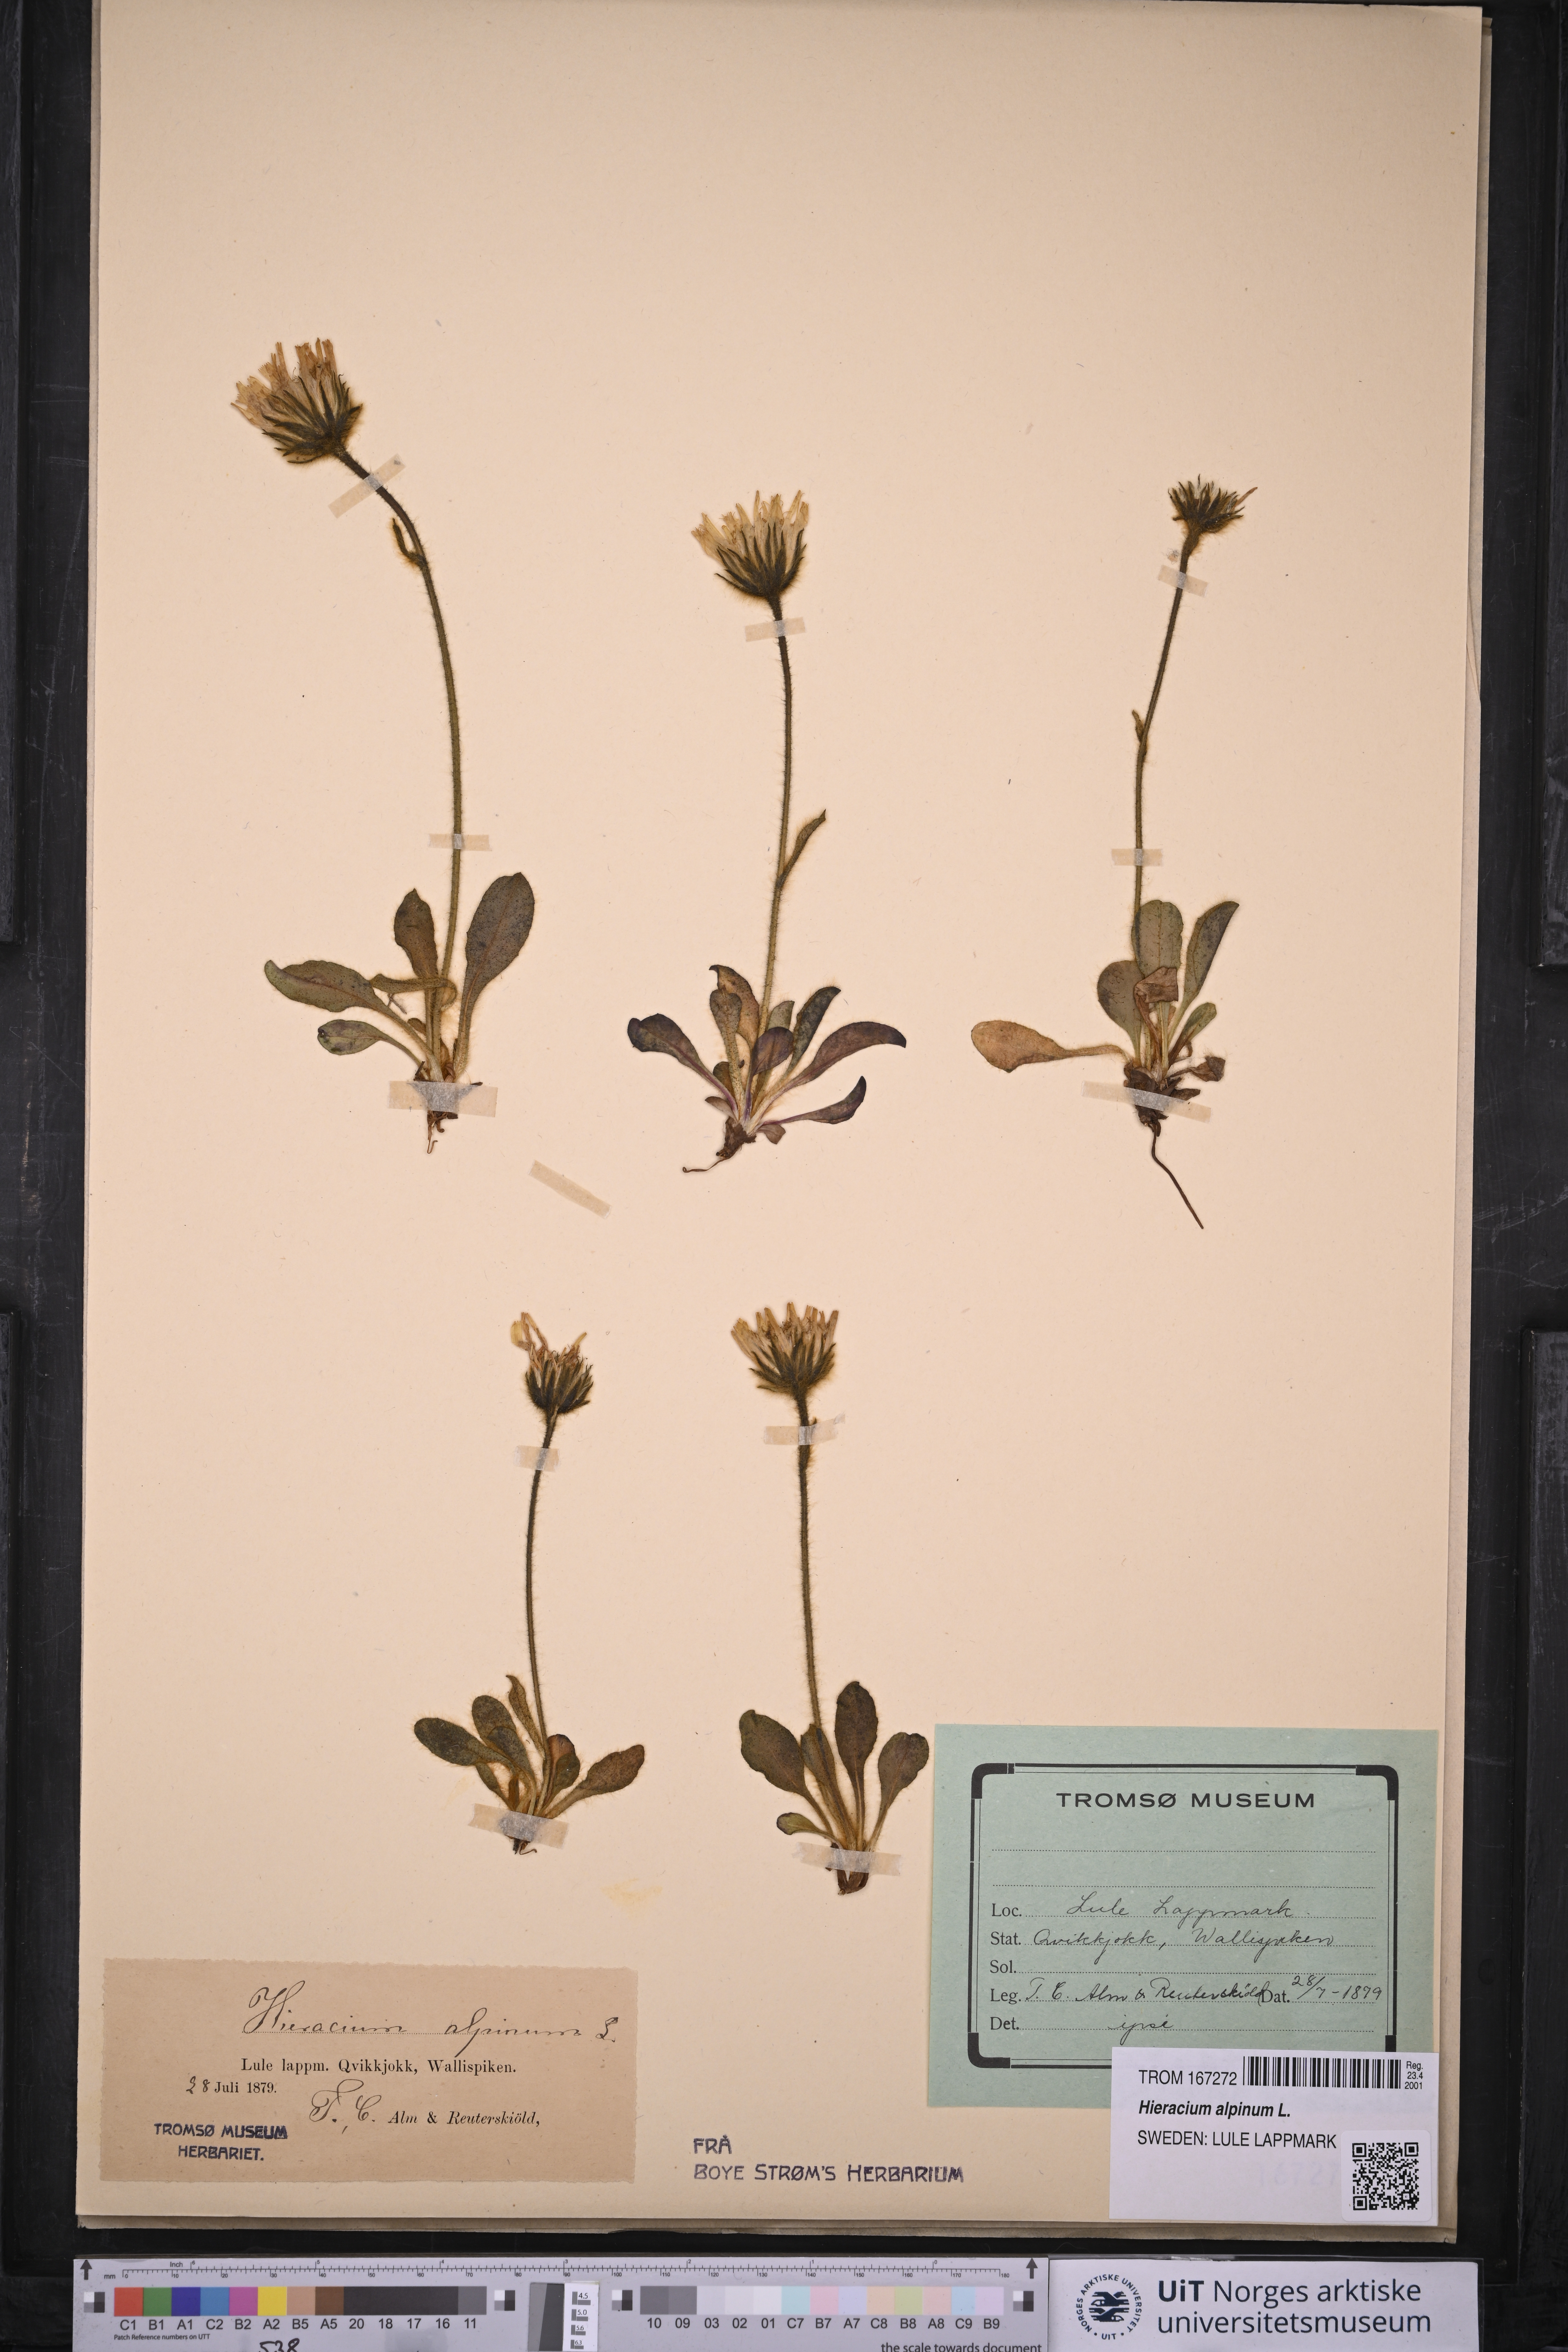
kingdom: Plantae
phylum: Tracheophyta
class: Magnoliopsida
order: Asterales
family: Asteraceae
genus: Hieracium
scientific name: Hieracium alpinum
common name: Alpine hawkweed
